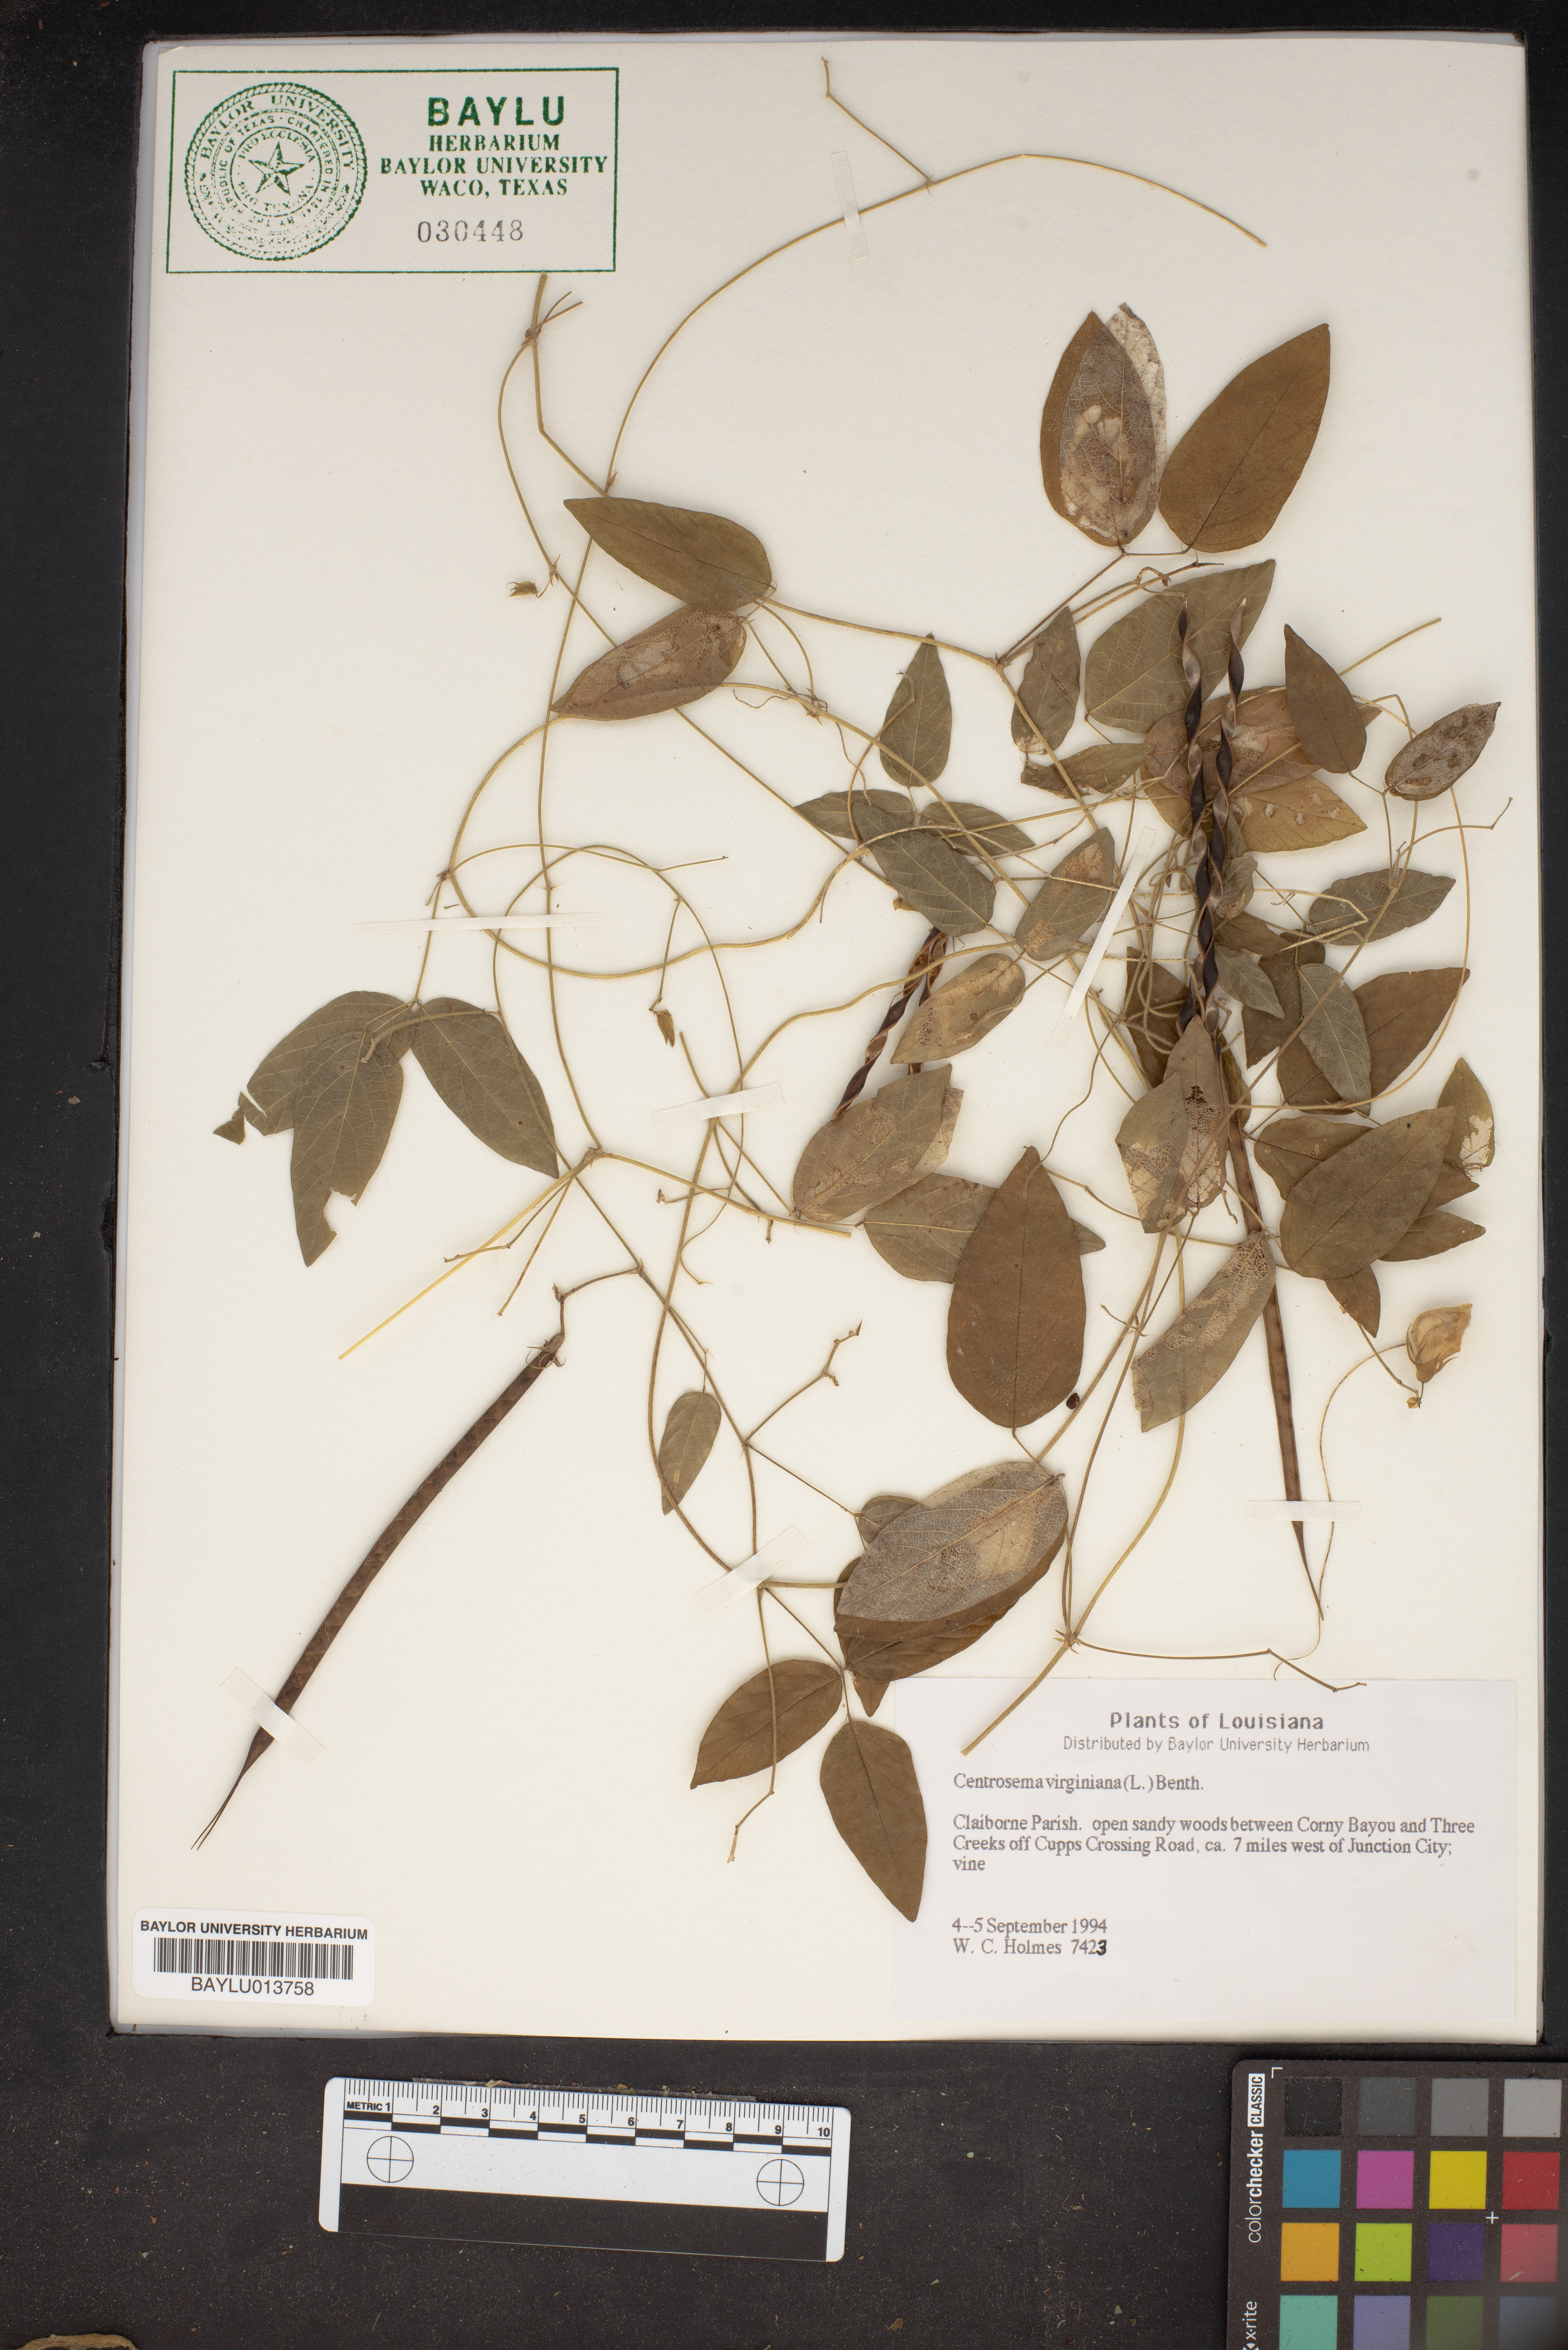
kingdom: Plantae
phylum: Tracheophyta
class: Magnoliopsida
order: Fabales
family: Fabaceae
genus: Centrosema
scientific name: Centrosema virginianum
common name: Butterfly-pea
